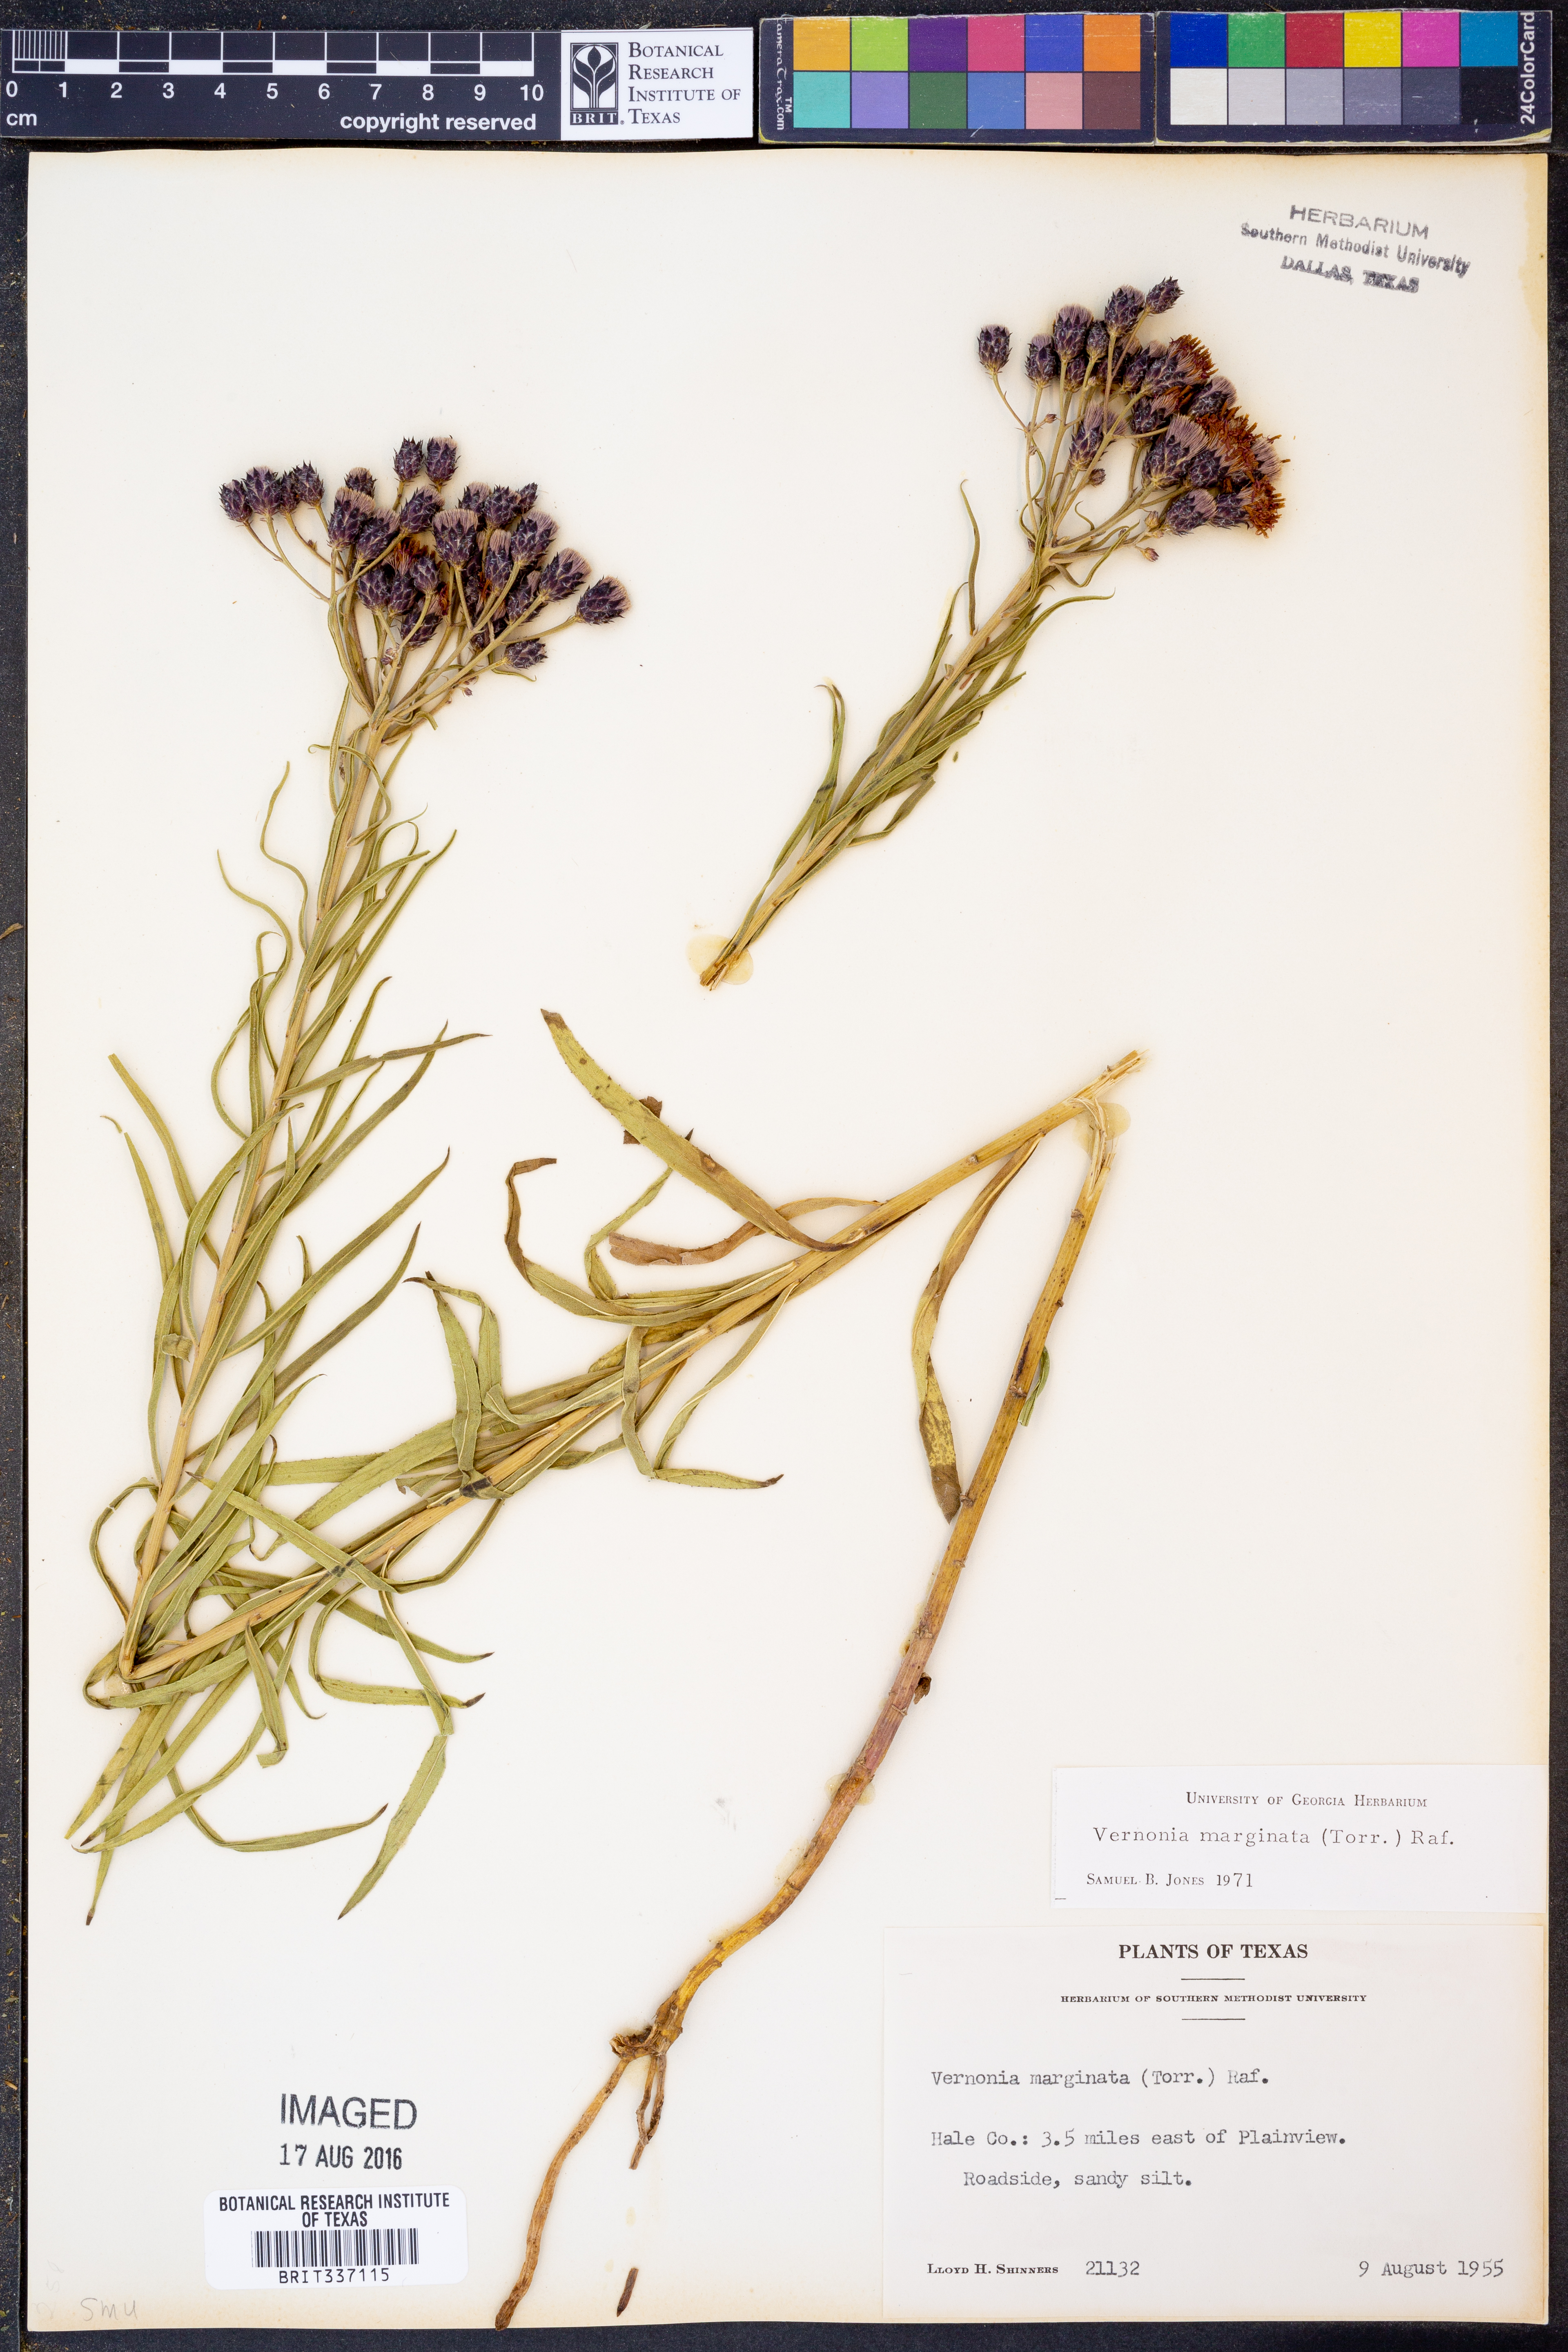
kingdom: Plantae
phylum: Tracheophyta
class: Magnoliopsida
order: Asterales
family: Asteraceae
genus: Vernonia
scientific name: Vernonia marginata
